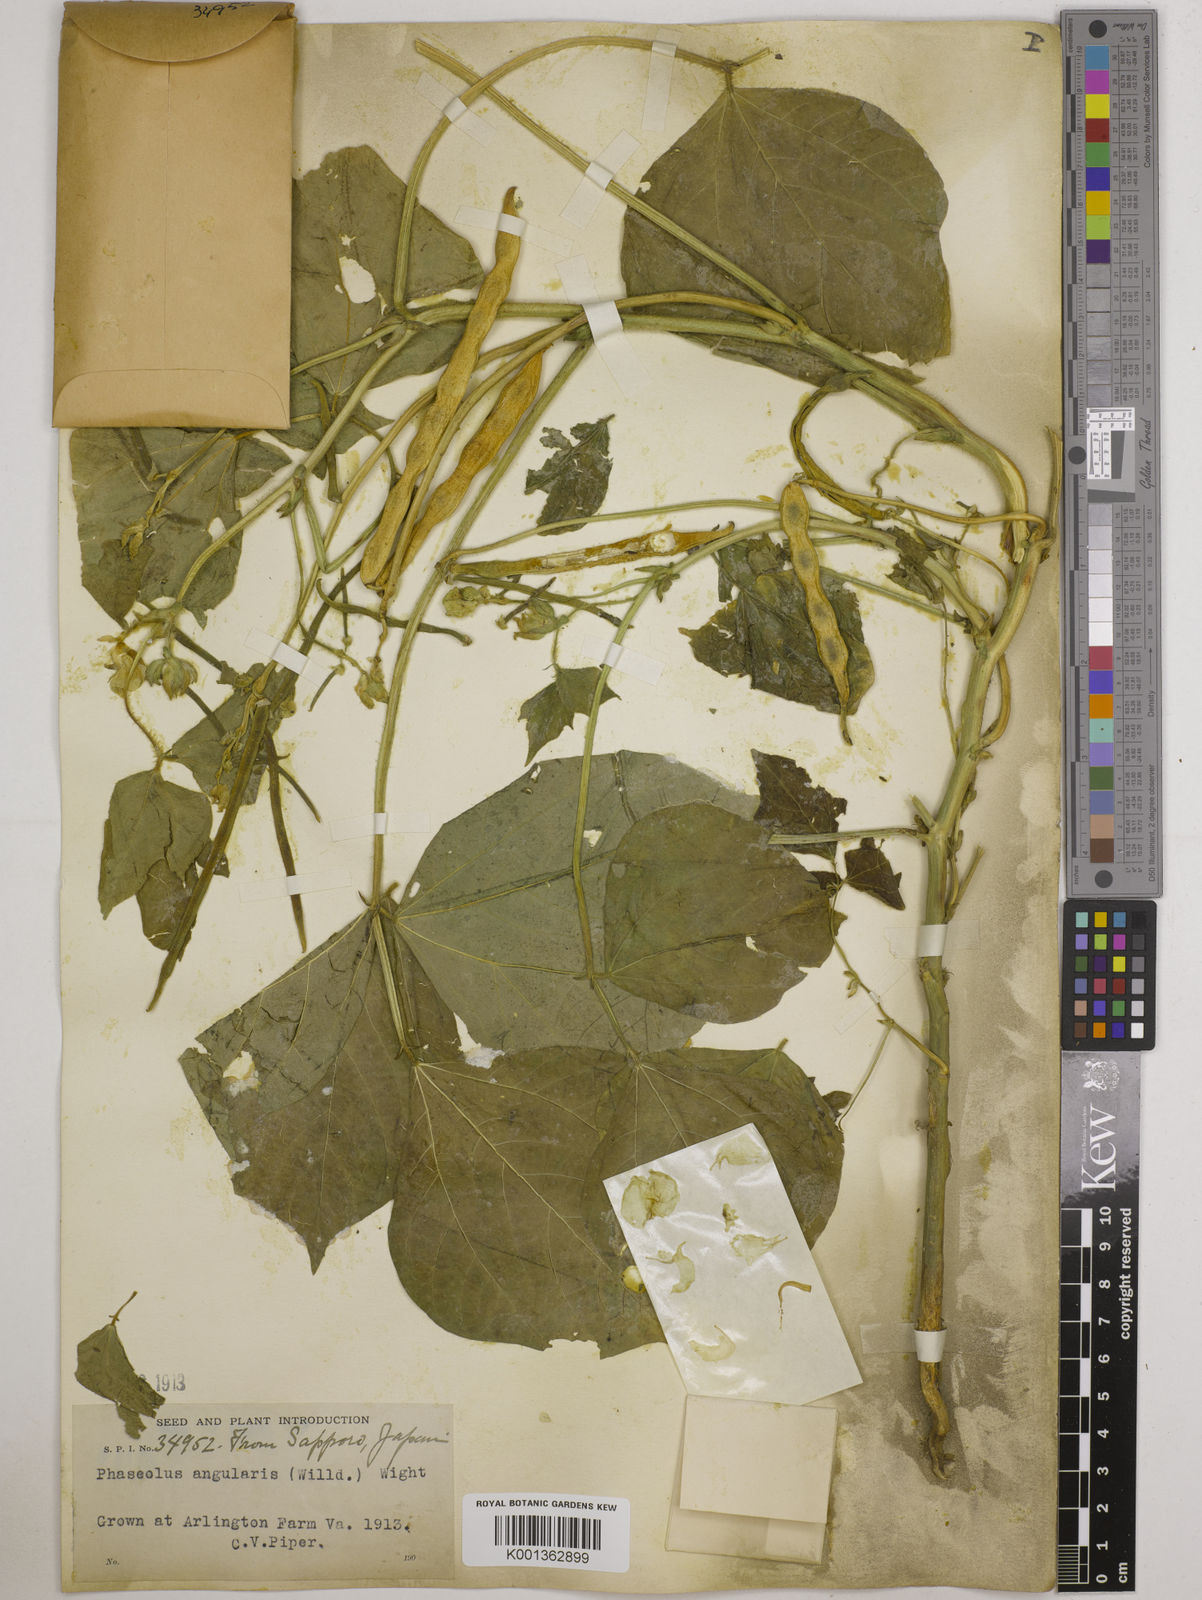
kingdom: Plantae
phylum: Tracheophyta
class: Magnoliopsida
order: Fabales
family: Fabaceae
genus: Vigna
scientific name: Vigna angularis
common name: Adzuki bean
